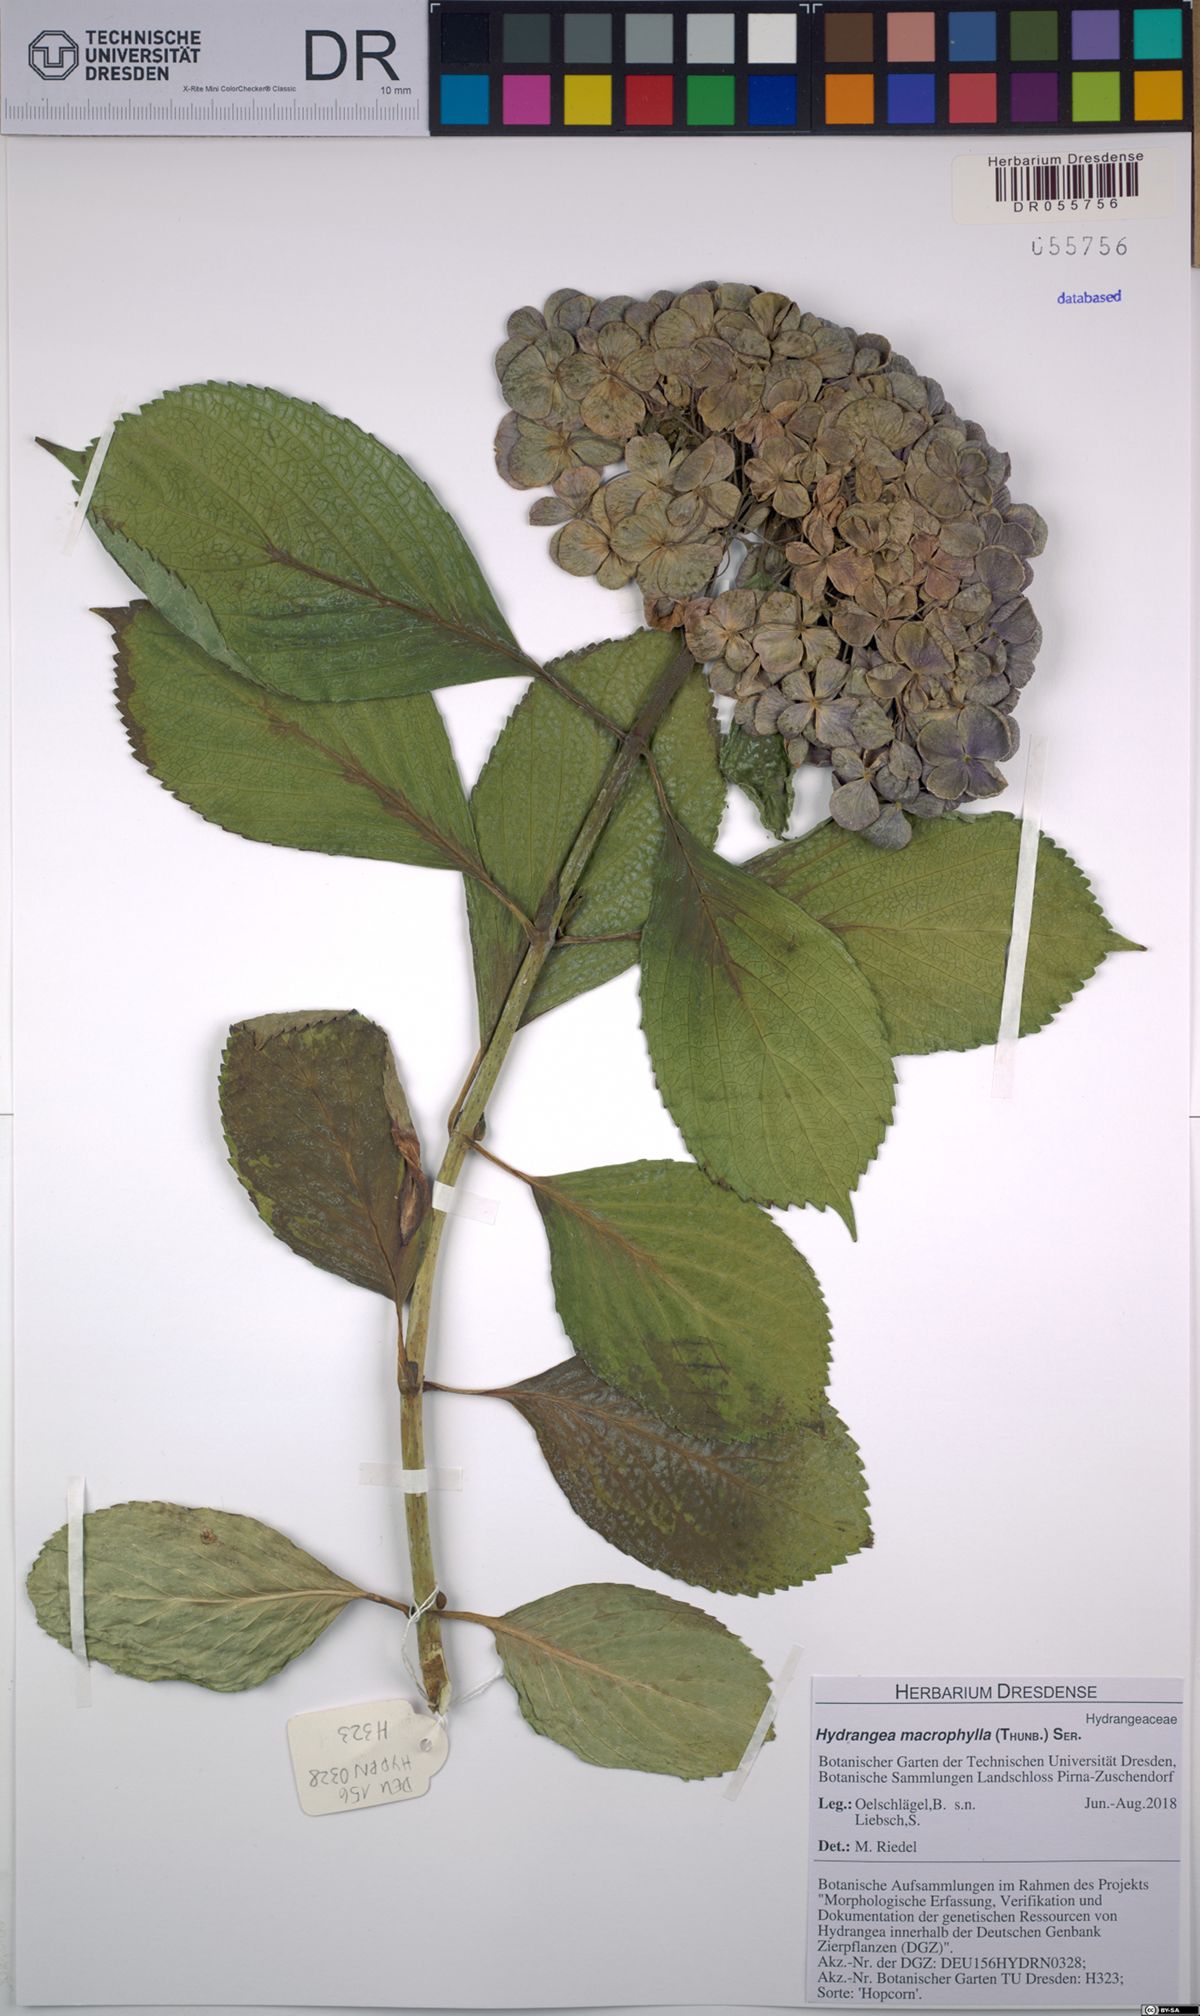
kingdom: Plantae
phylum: Tracheophyta
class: Magnoliopsida
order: Cornales
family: Hydrangeaceae
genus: Hydrangea
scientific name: Hydrangea macrophylla
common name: Hydrangea
